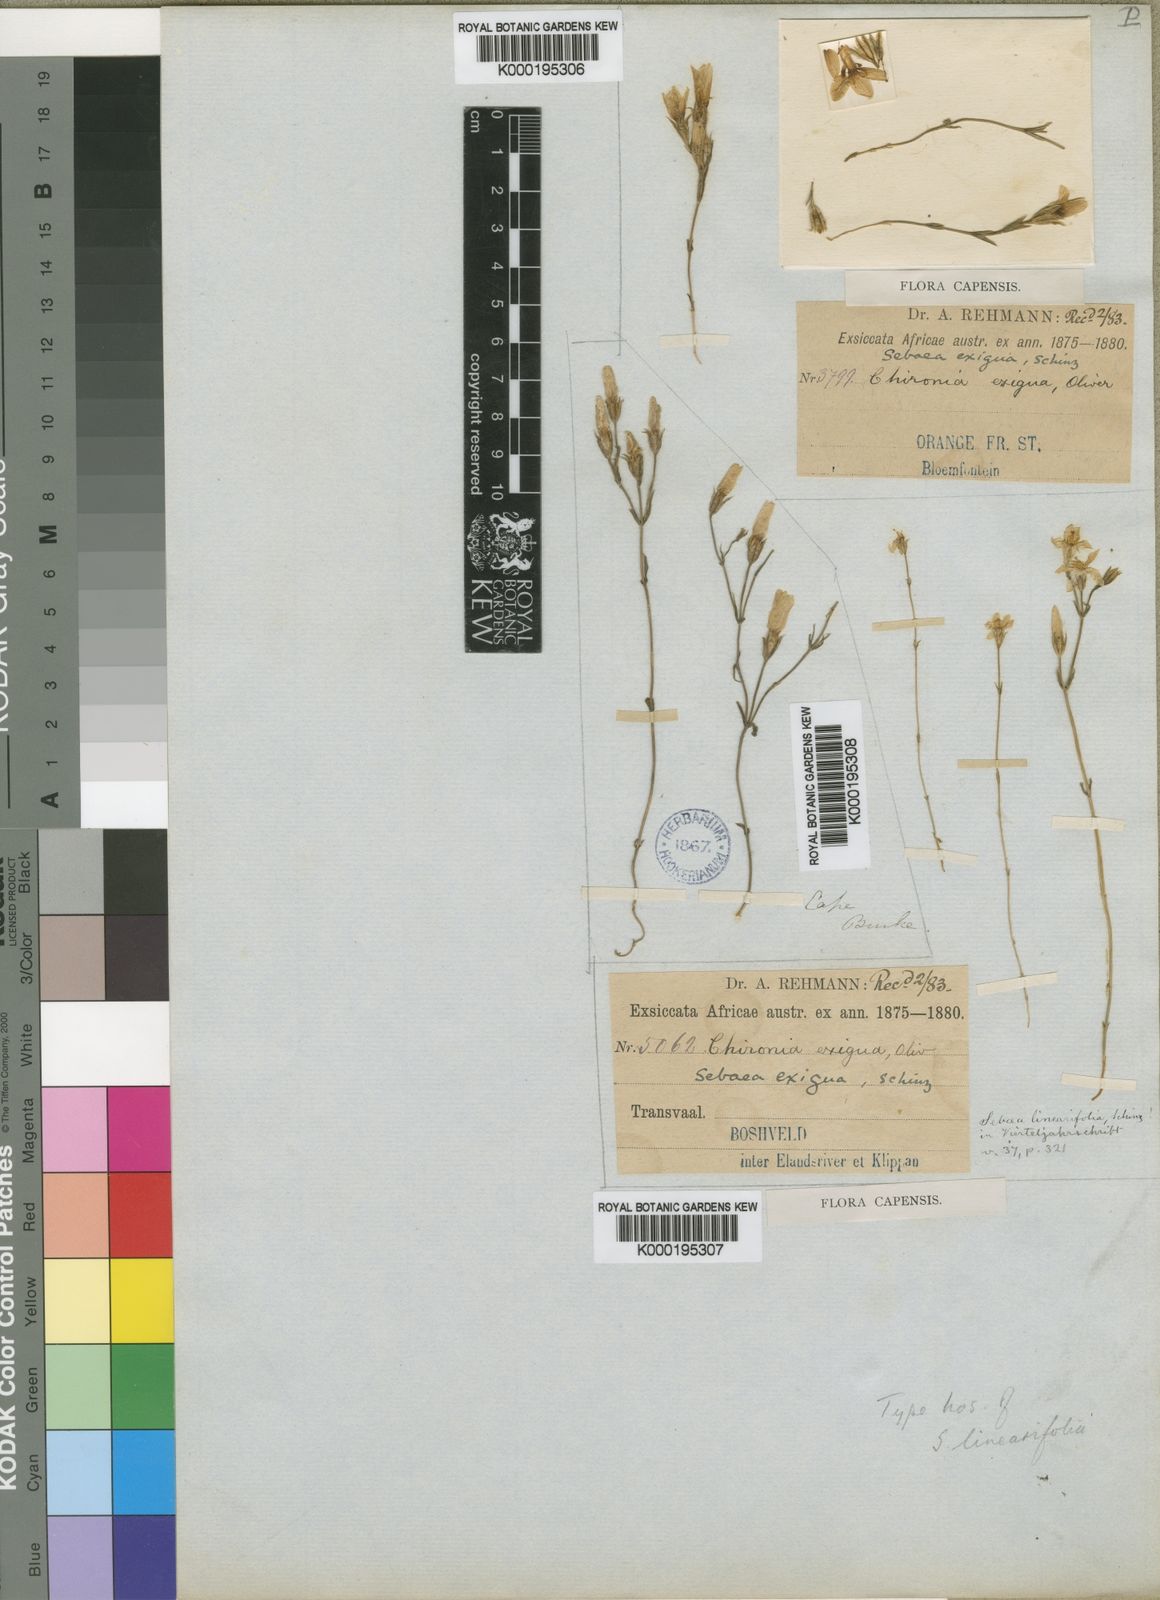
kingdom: Plantae
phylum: Tracheophyta
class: Magnoliopsida
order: Gentianales
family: Gentianaceae
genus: Sebaea
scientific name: Sebaea exigua
